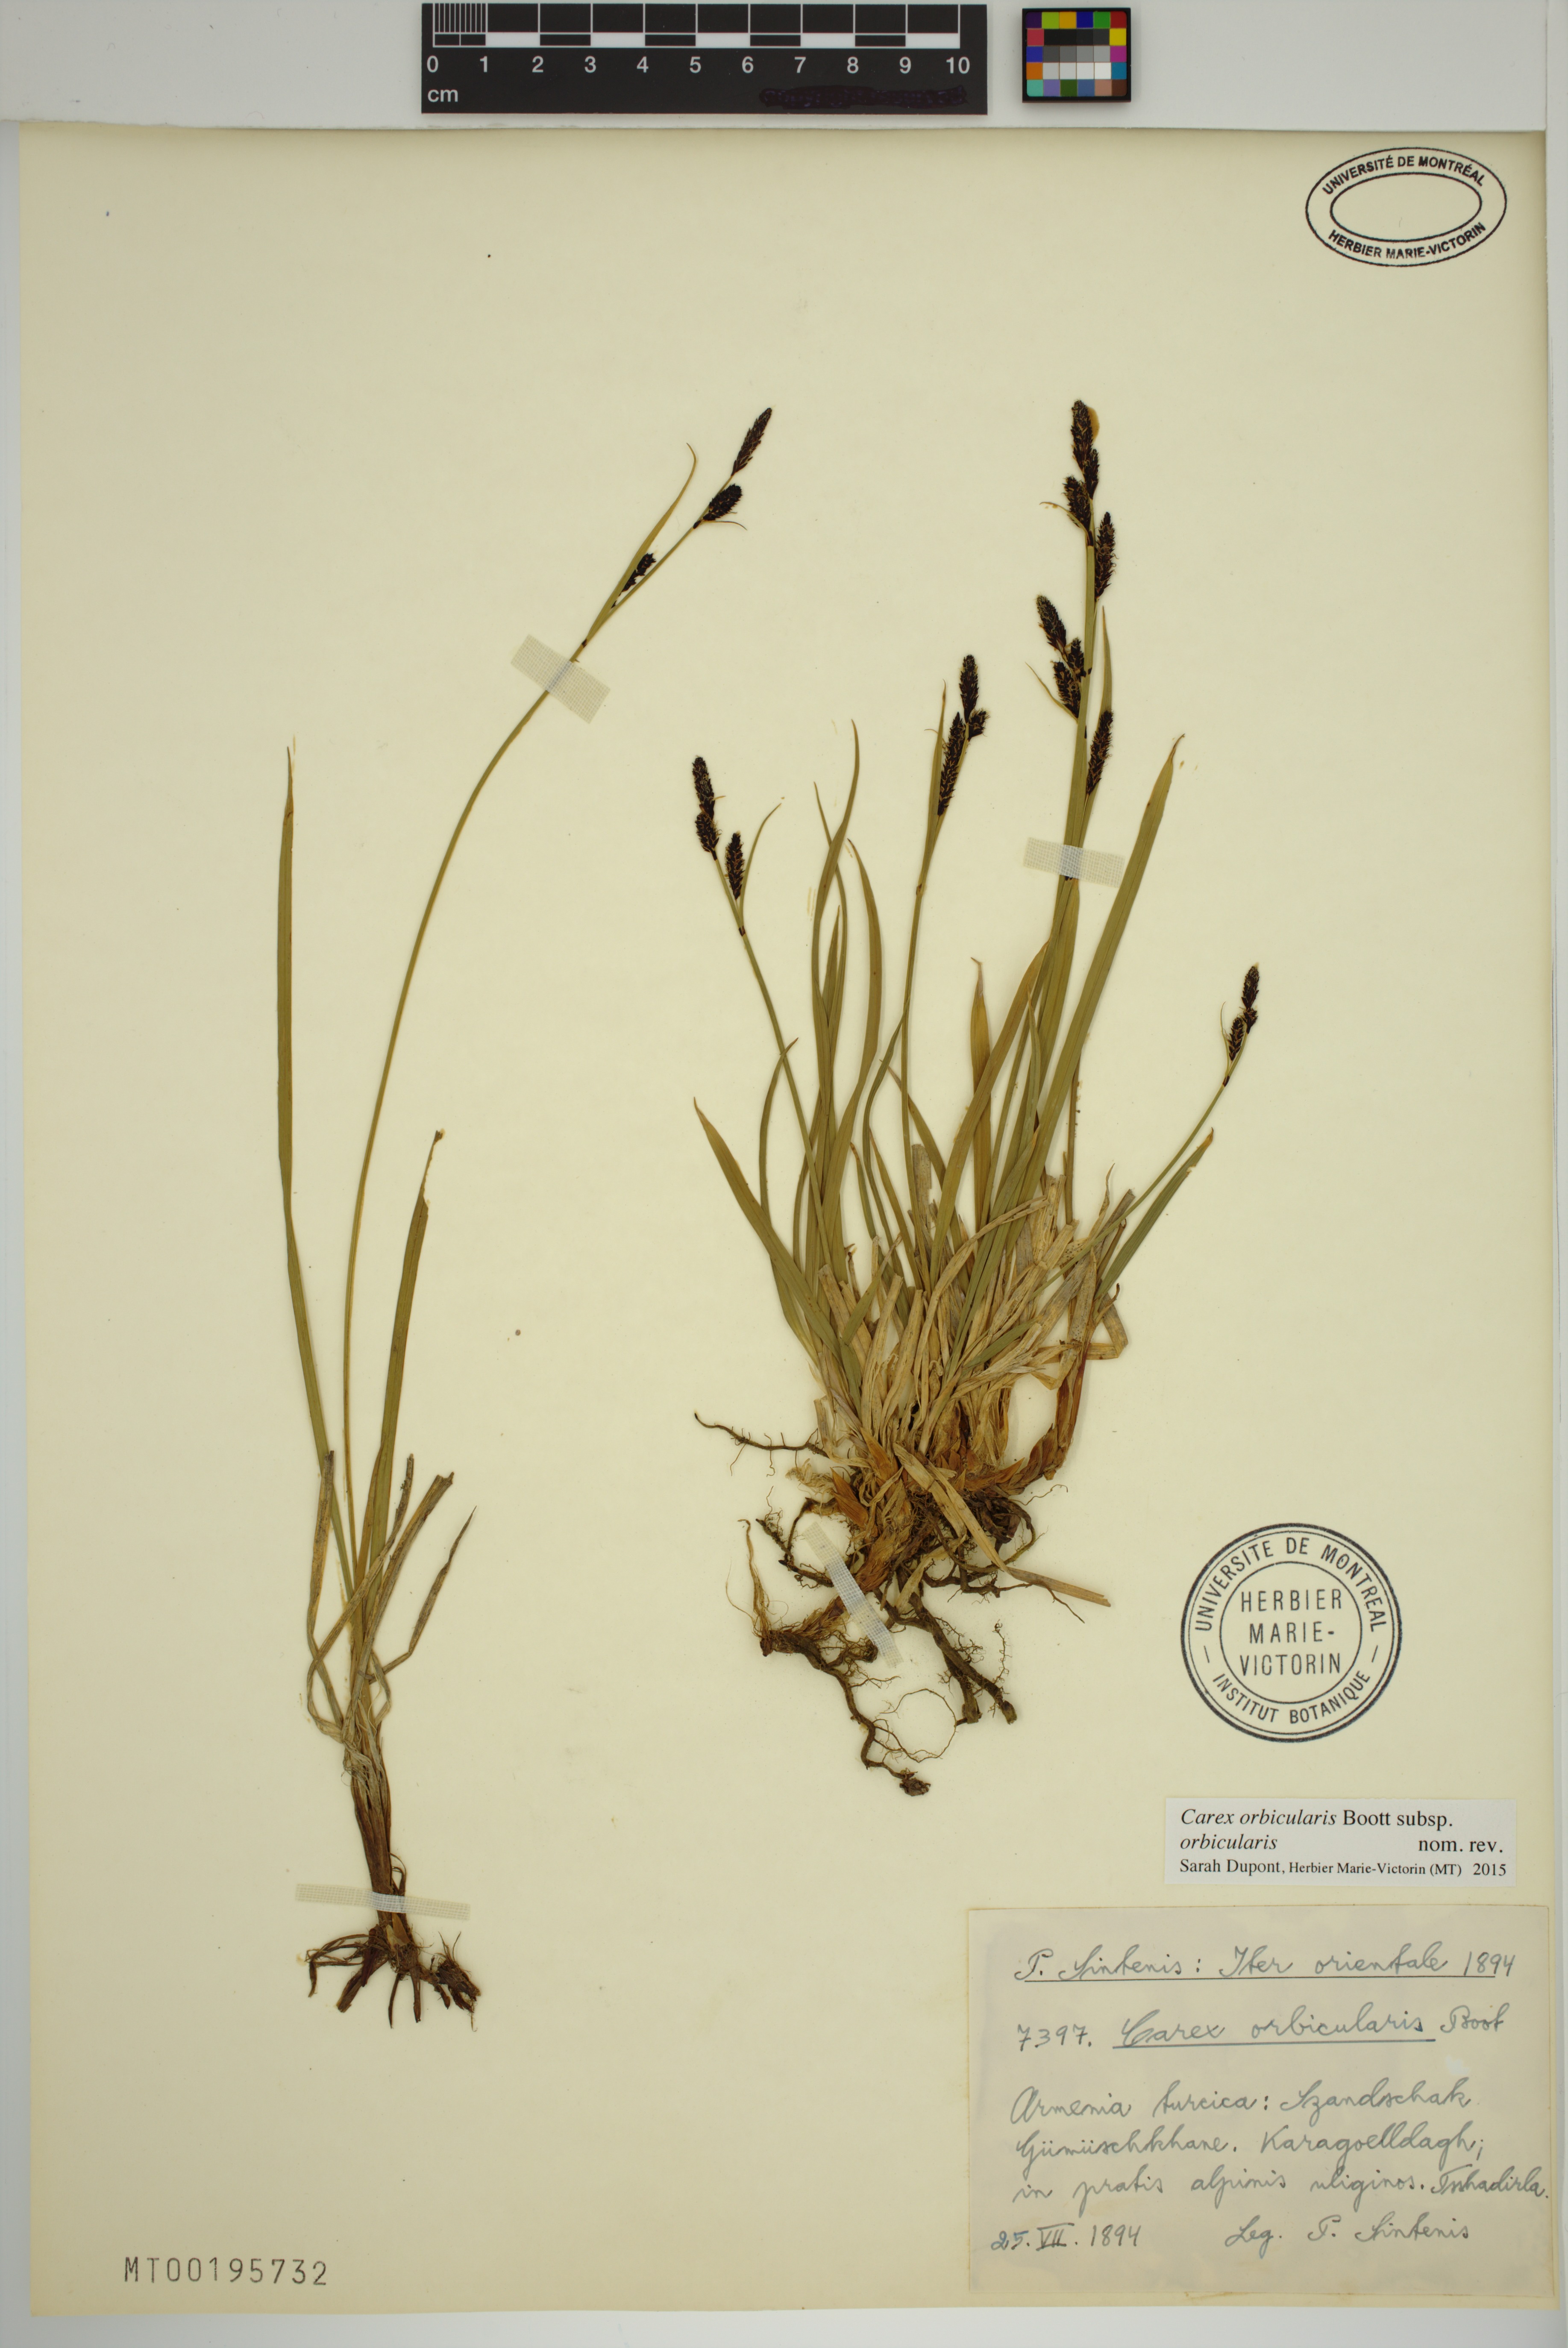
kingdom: Plantae
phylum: Tracheophyta
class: Liliopsida
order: Poales
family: Cyperaceae
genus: Carex
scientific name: Carex orbicularis
